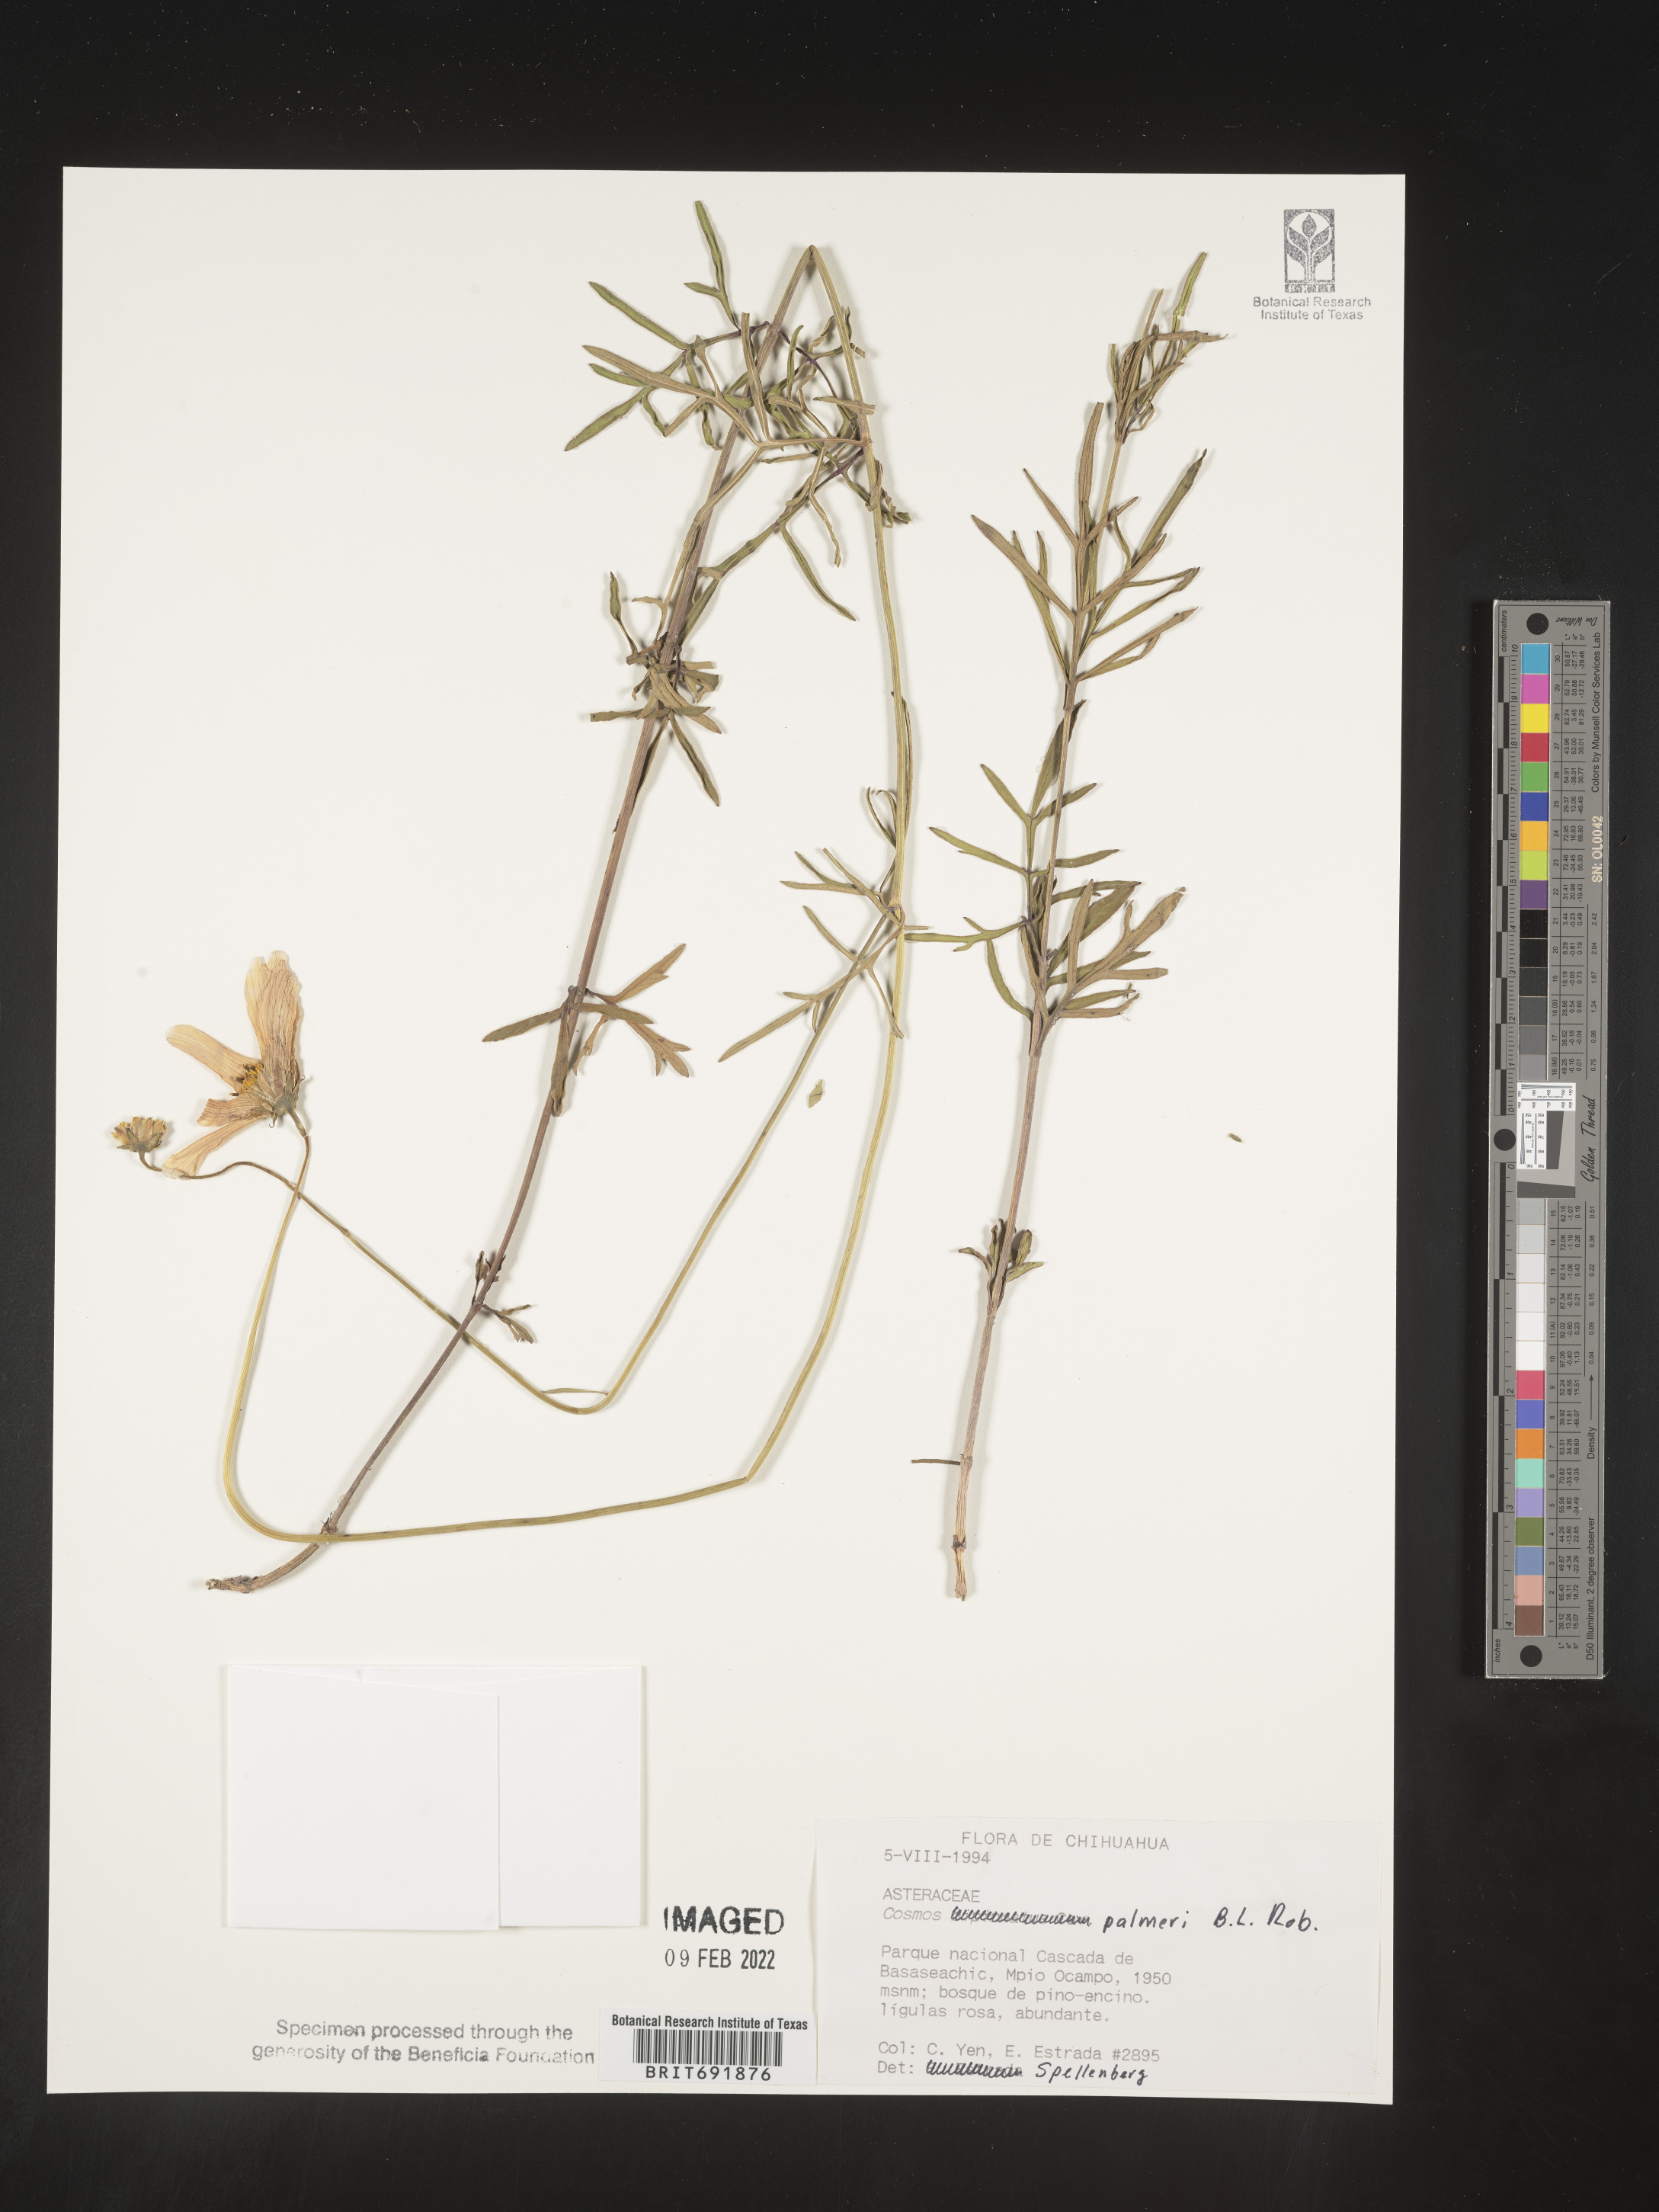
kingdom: Plantae
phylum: Tracheophyta
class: Magnoliopsida
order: Asterales
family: Asteraceae
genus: Cosmos
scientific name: Cosmos
